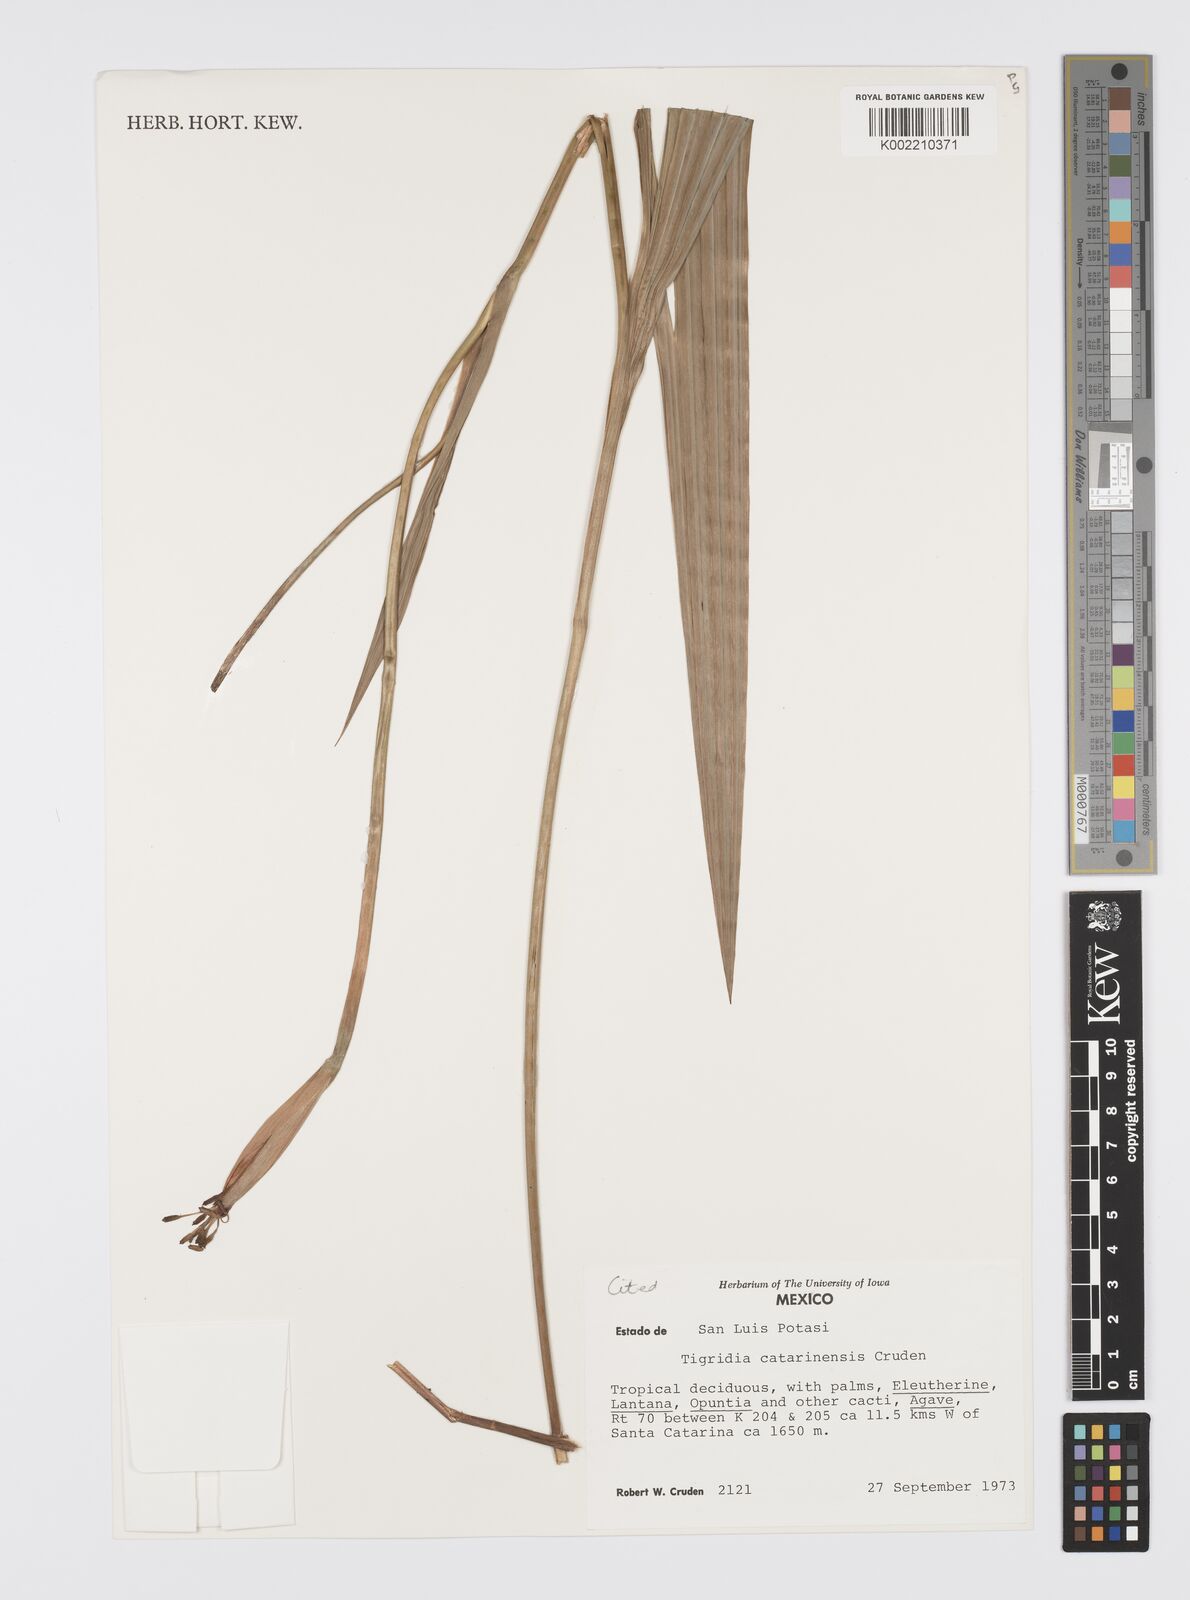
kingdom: Plantae
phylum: Tracheophyta
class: Liliopsida
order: Asparagales
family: Iridaceae
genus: Tigridia
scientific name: Tigridia catarinensis
